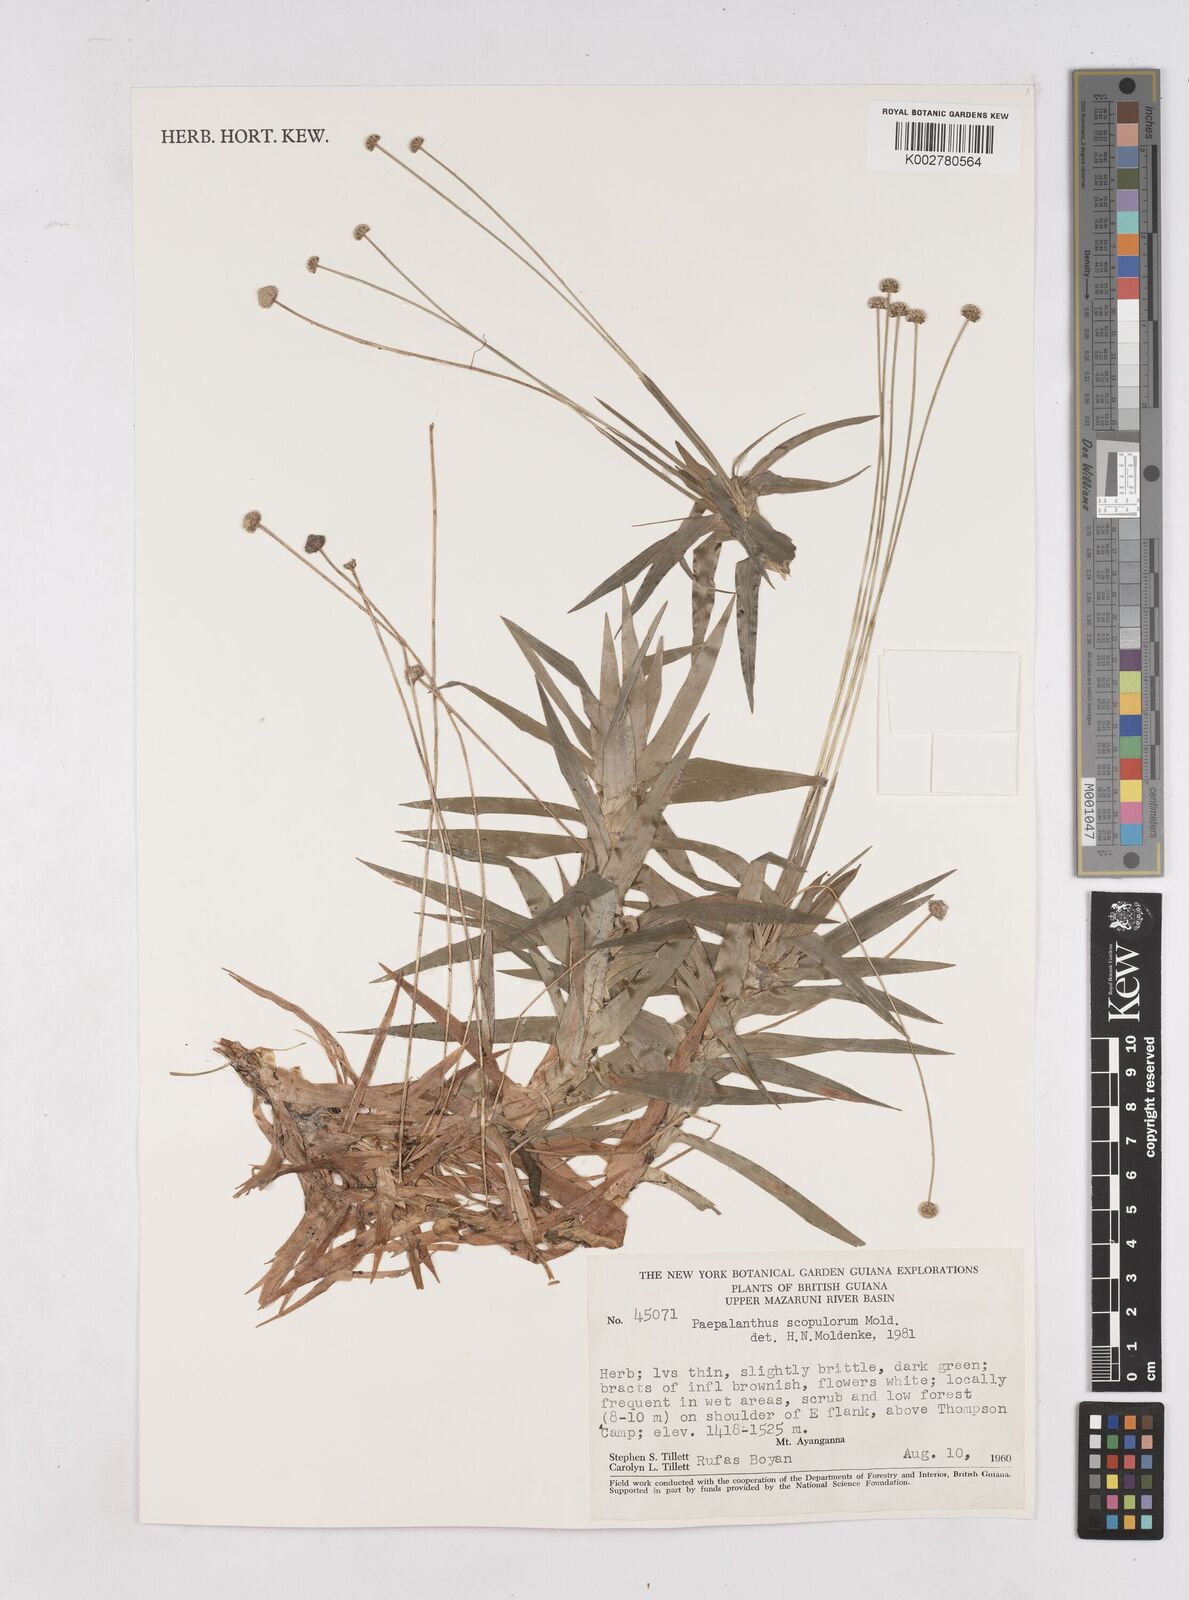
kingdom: Plantae
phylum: Tracheophyta
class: Liliopsida
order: Poales
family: Eriocaulaceae
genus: Paepalanthus
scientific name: Paepalanthus scopulorum
